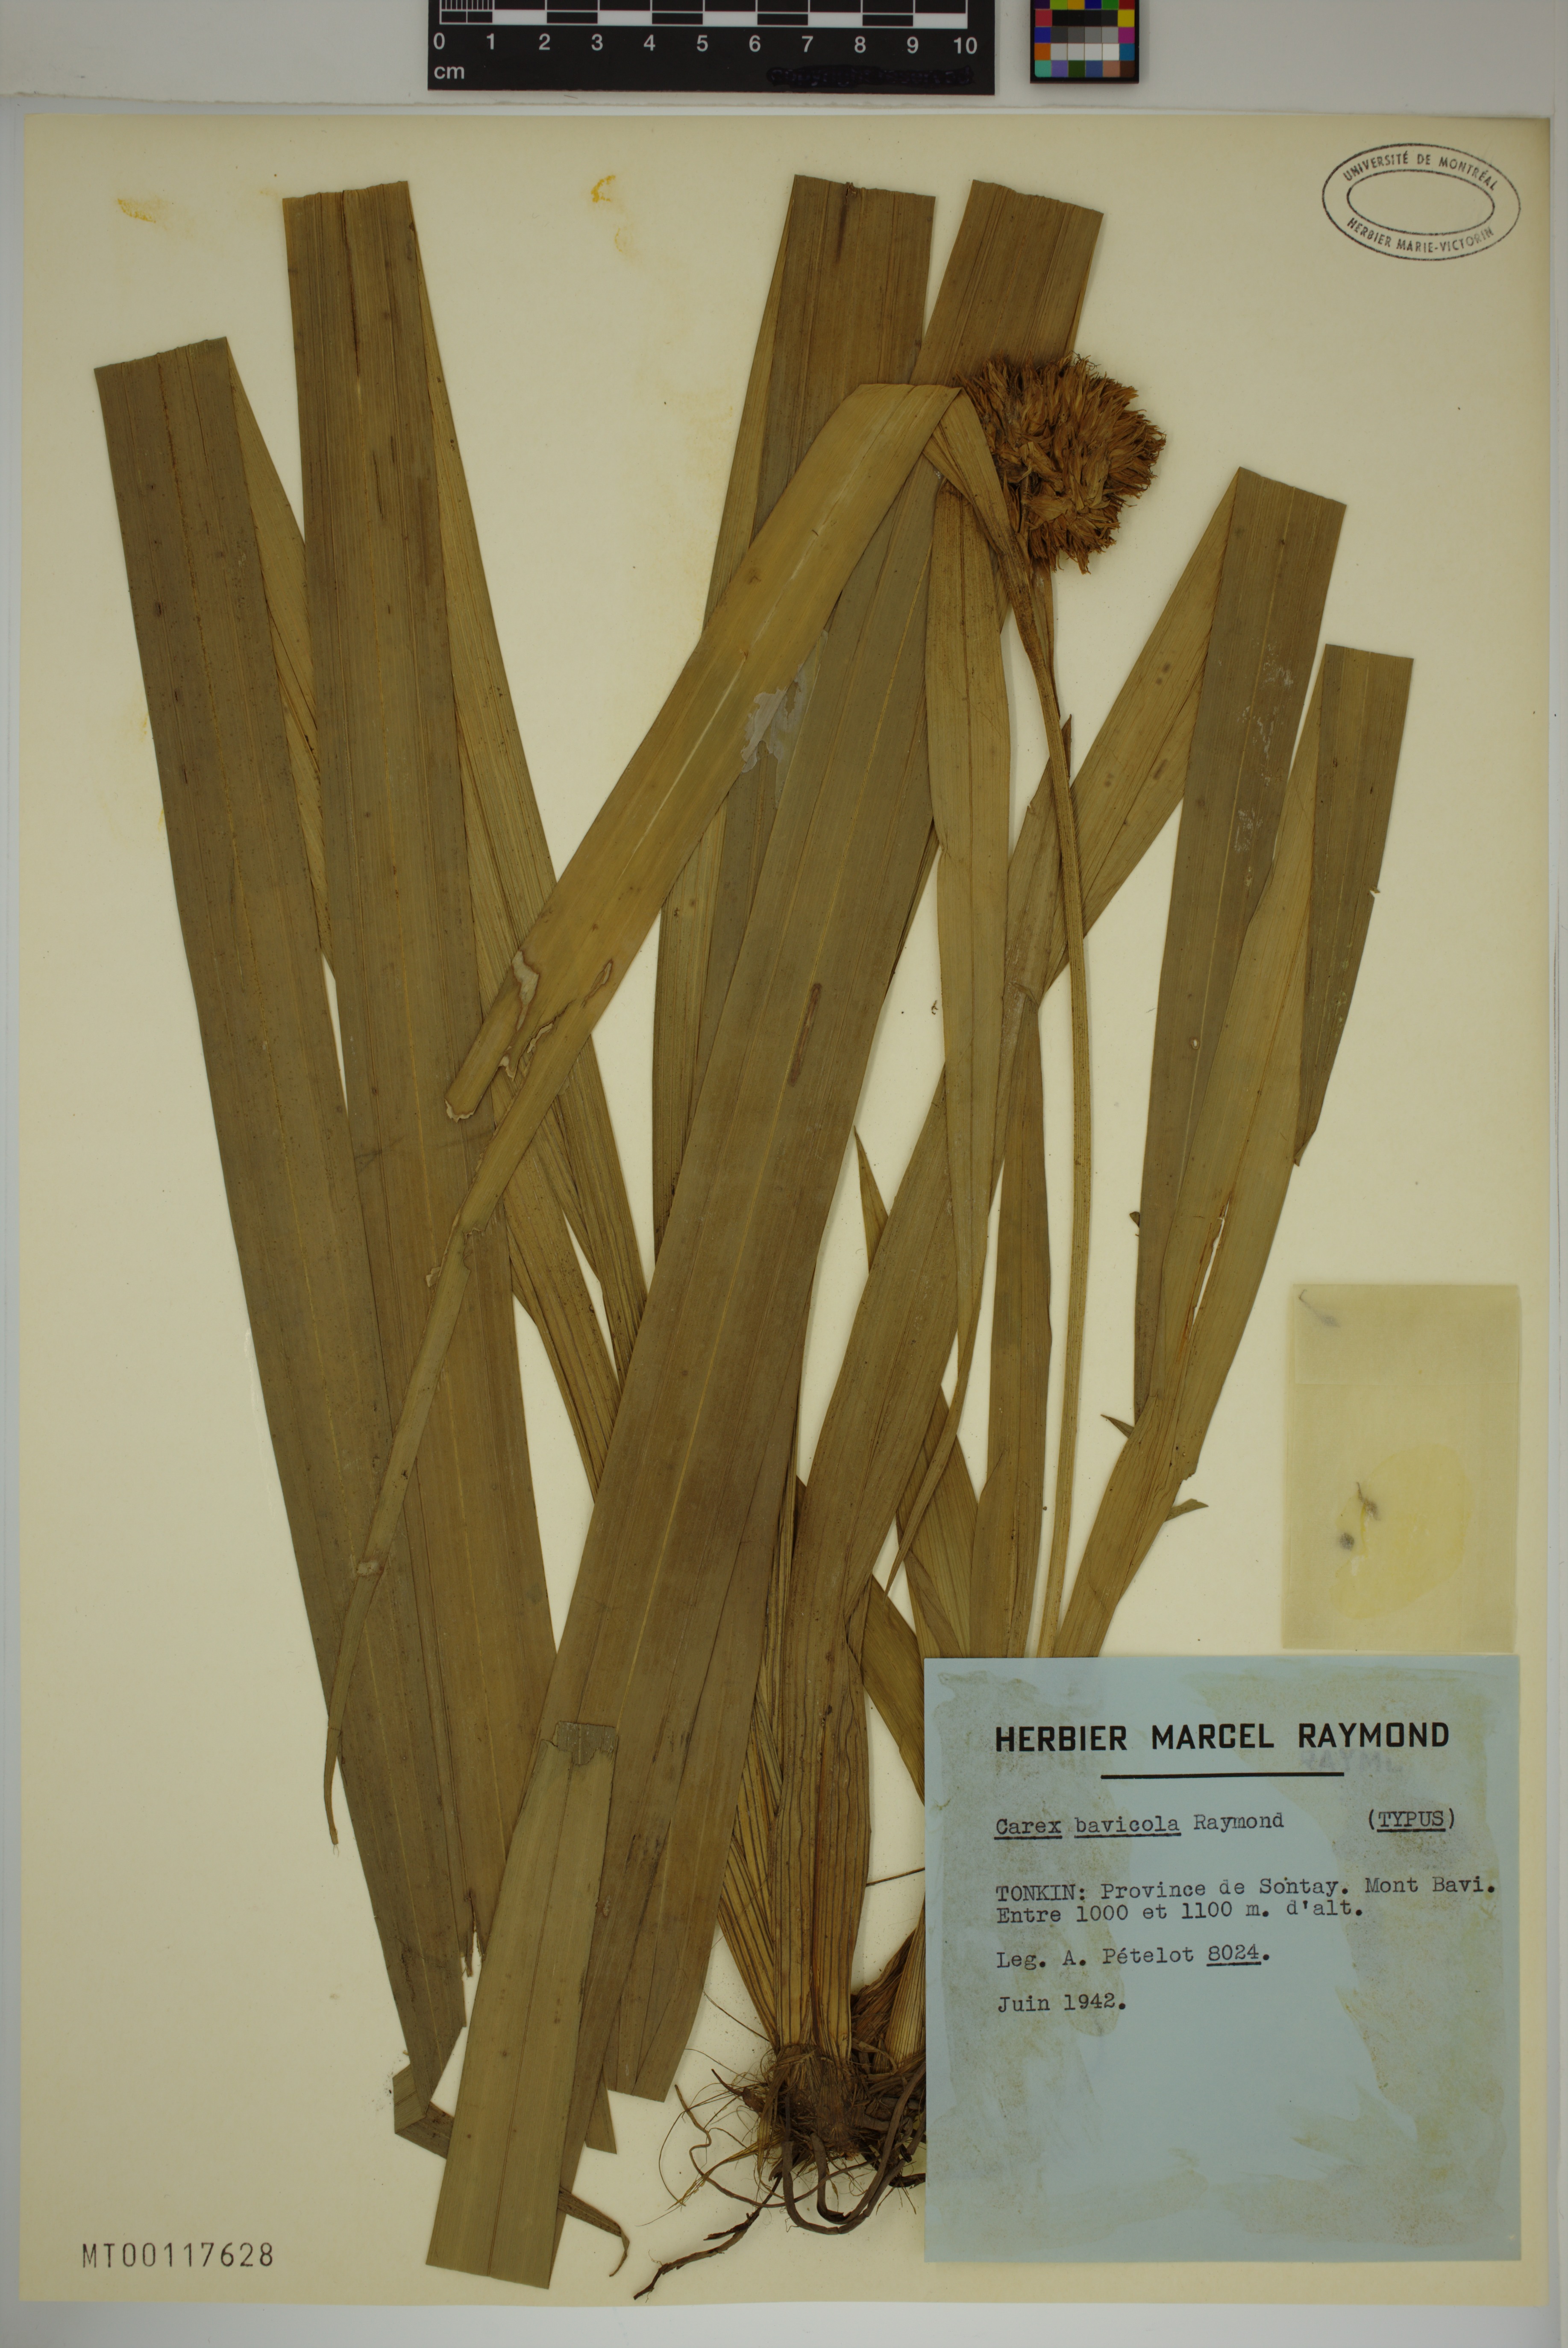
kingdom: Plantae
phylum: Tracheophyta
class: Liliopsida
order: Poales
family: Cyperaceae
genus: Carex
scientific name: Carex bavicola
